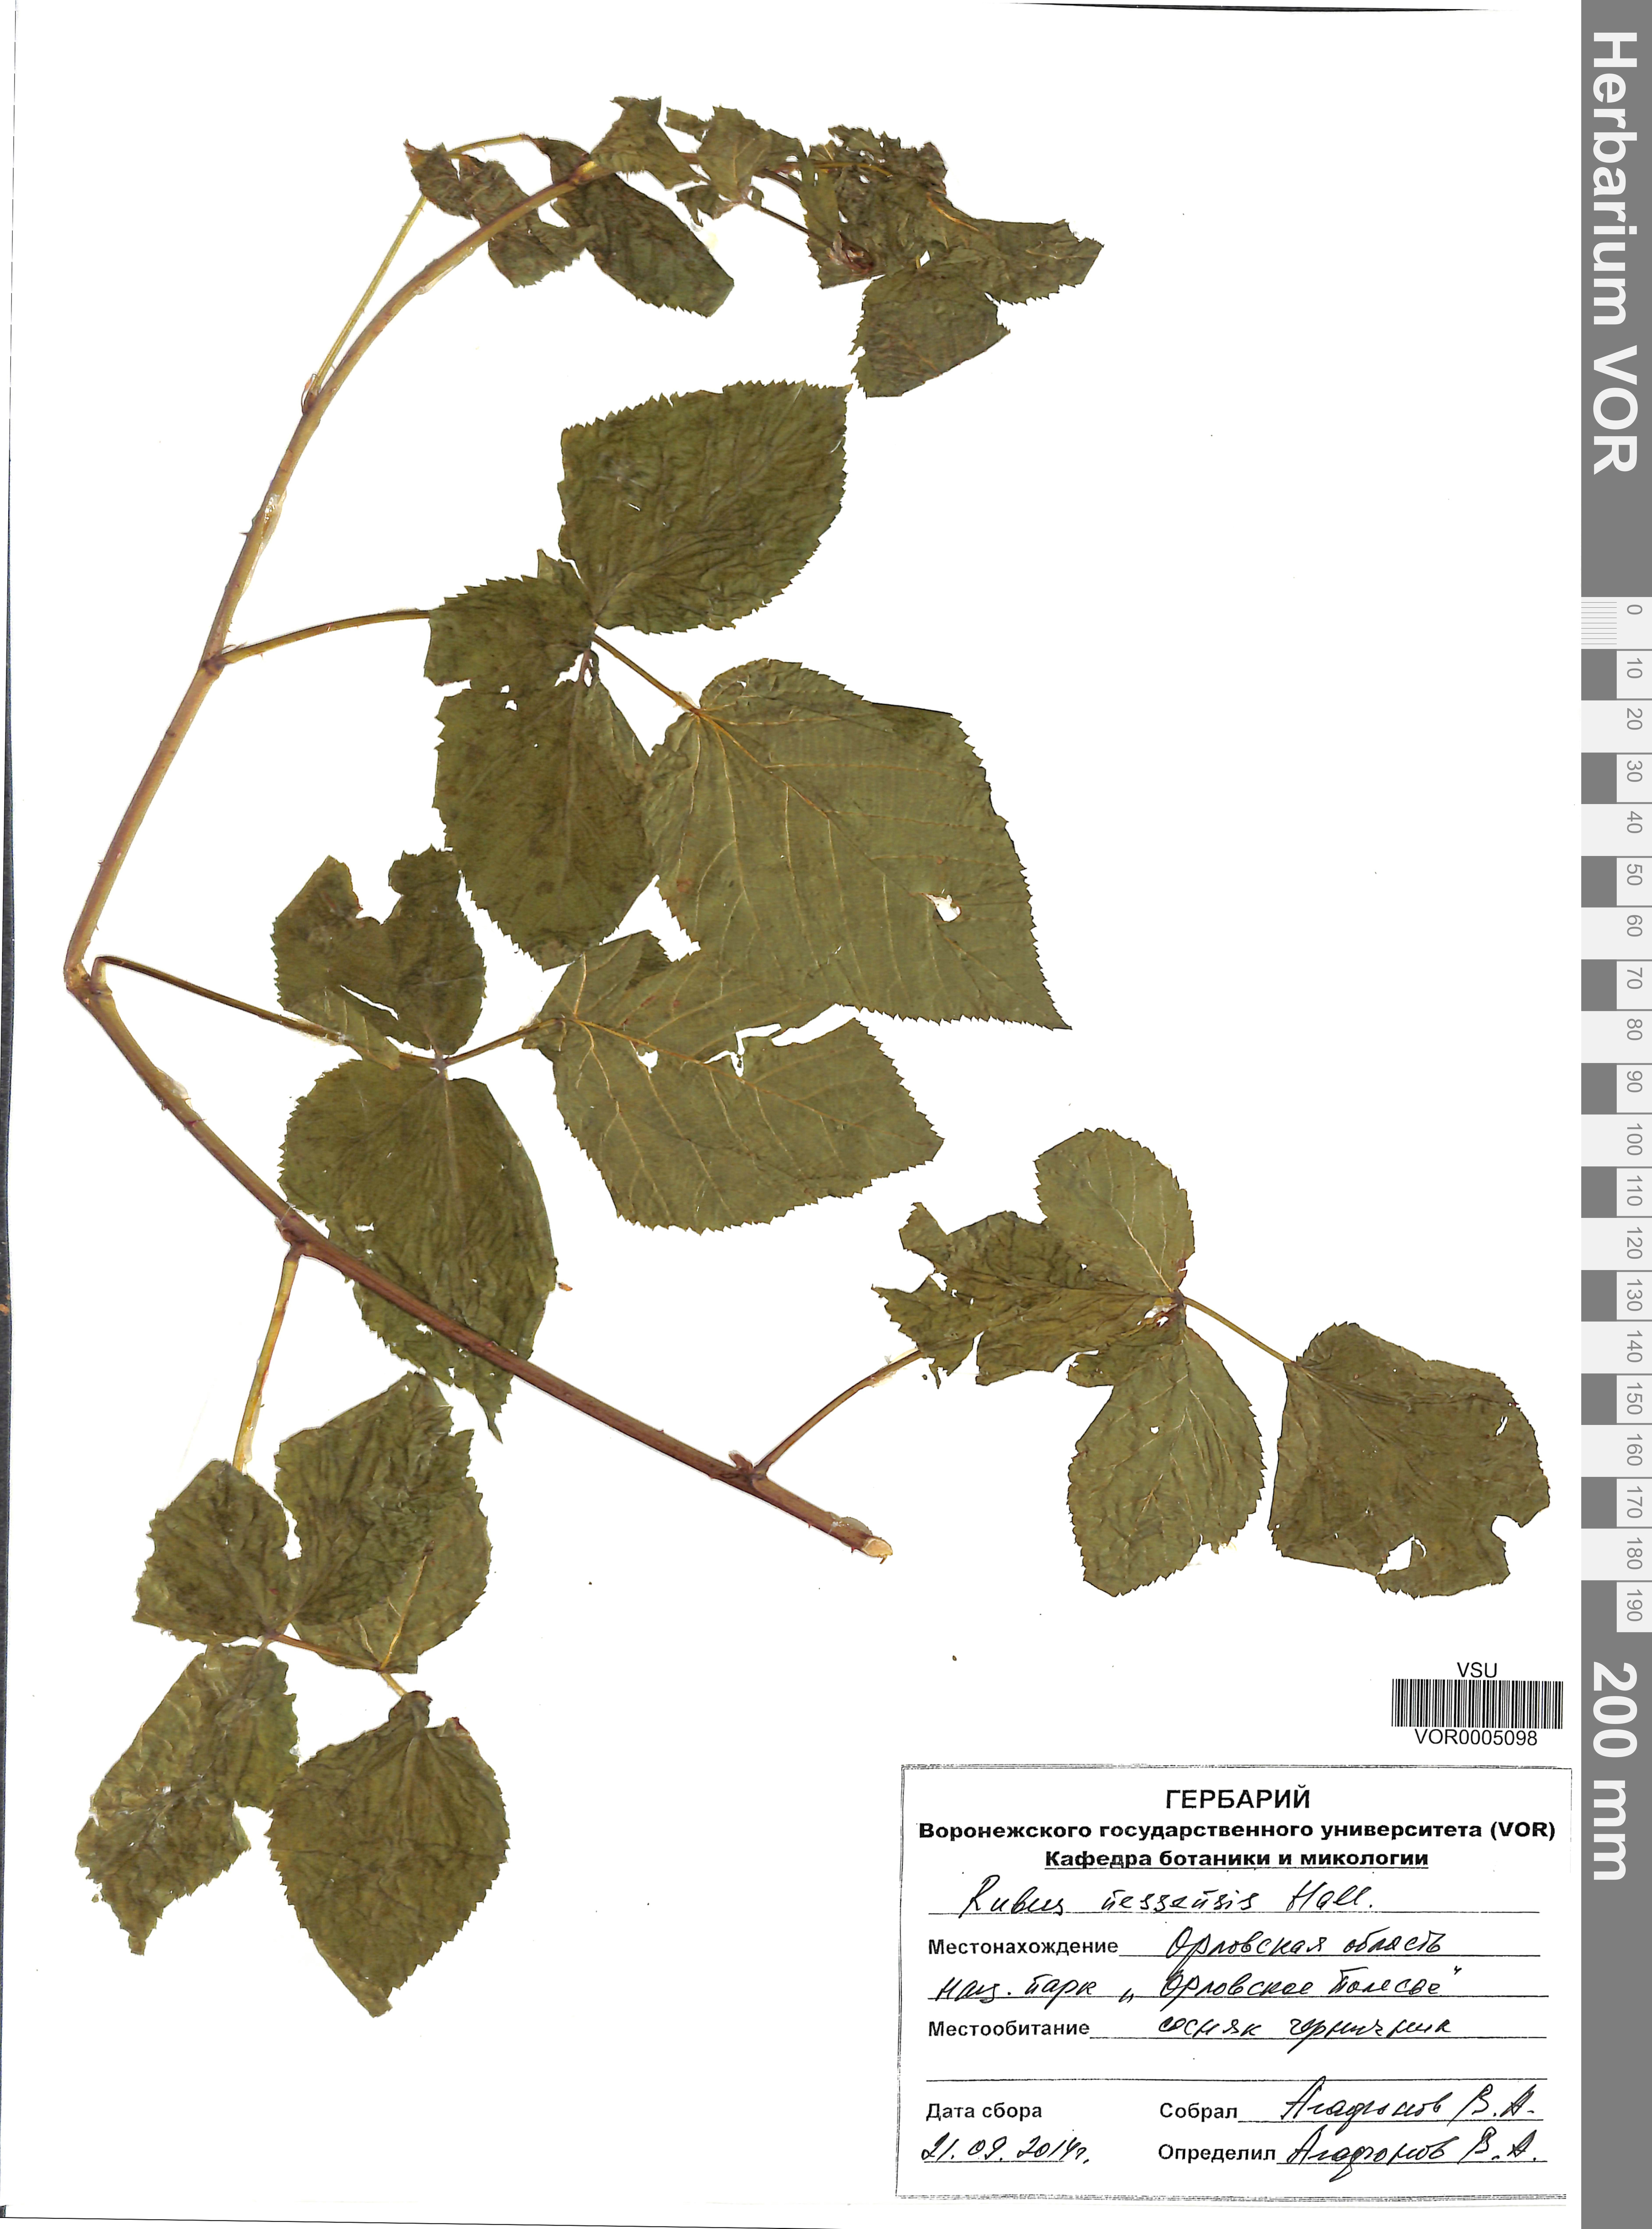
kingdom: Plantae
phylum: Tracheophyta
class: Magnoliopsida
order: Rosales
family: Rosaceae
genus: Rubus
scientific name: Rubus polonicus
